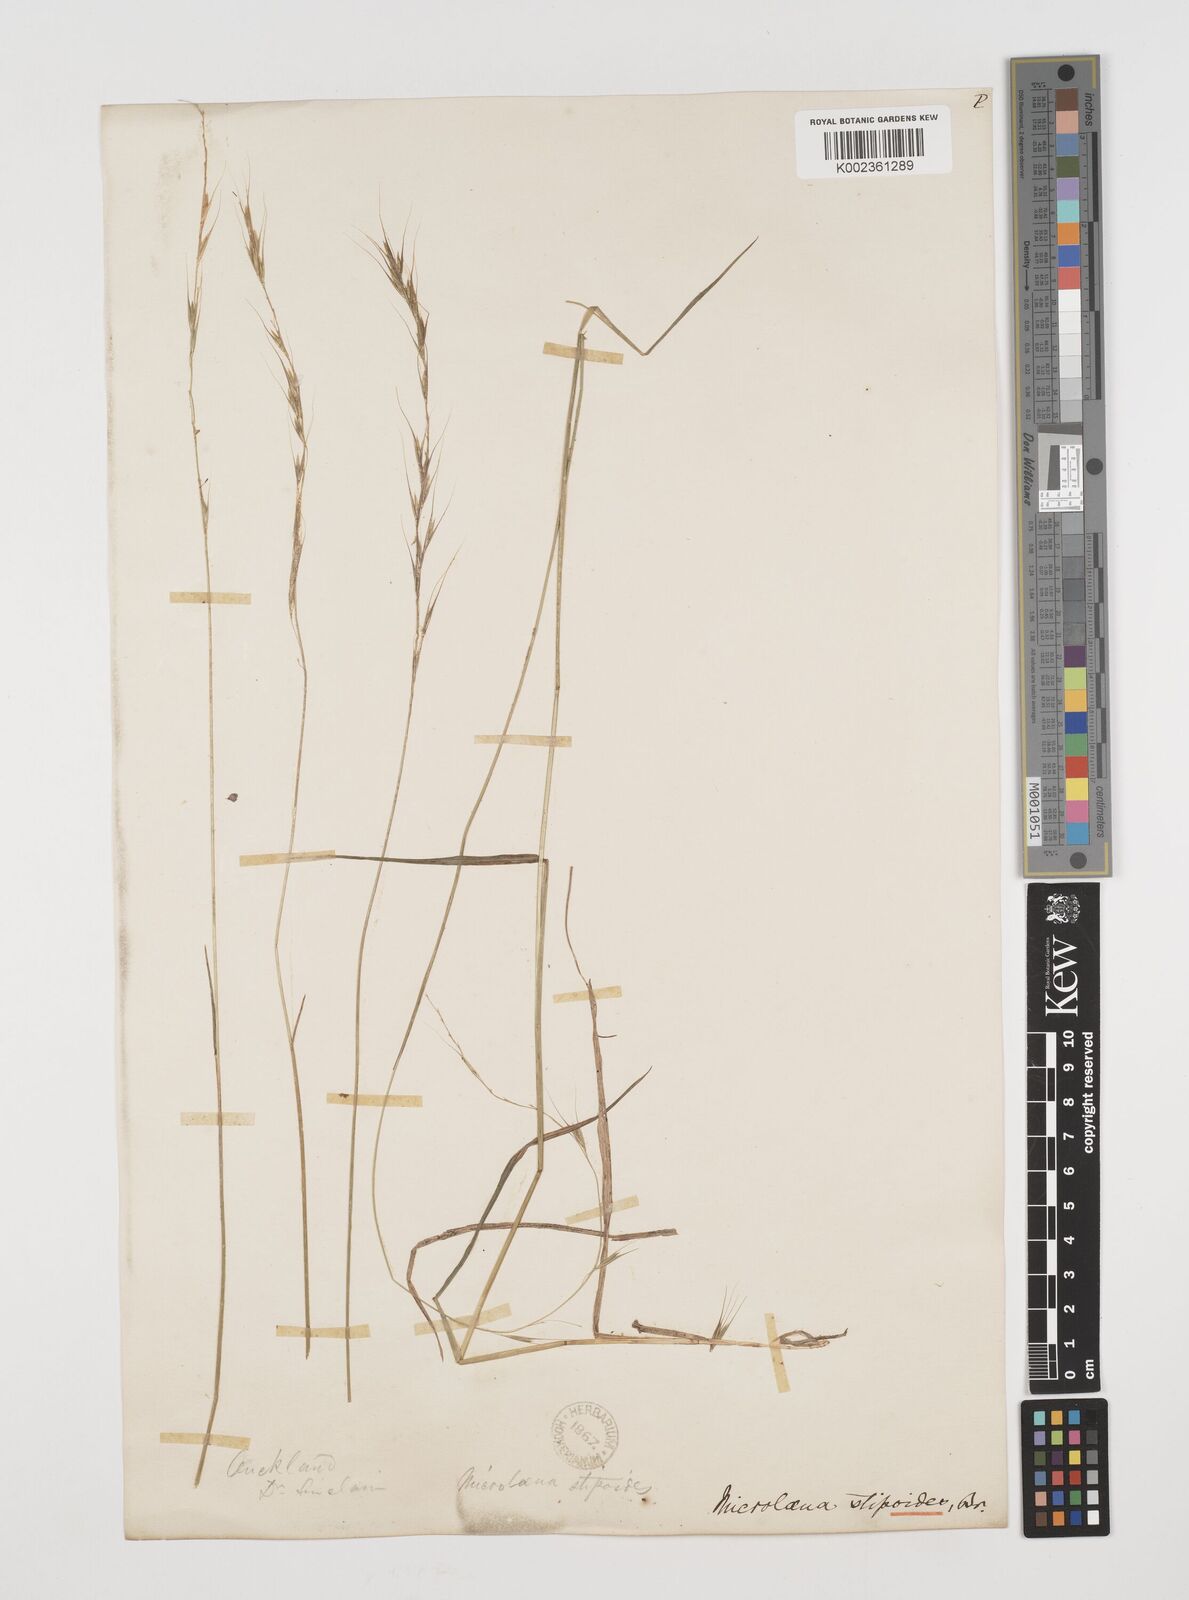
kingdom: Plantae
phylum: Tracheophyta
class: Liliopsida
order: Poales
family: Poaceae
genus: Microlaena
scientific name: Microlaena stipoides
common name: Meadow ricegrass
